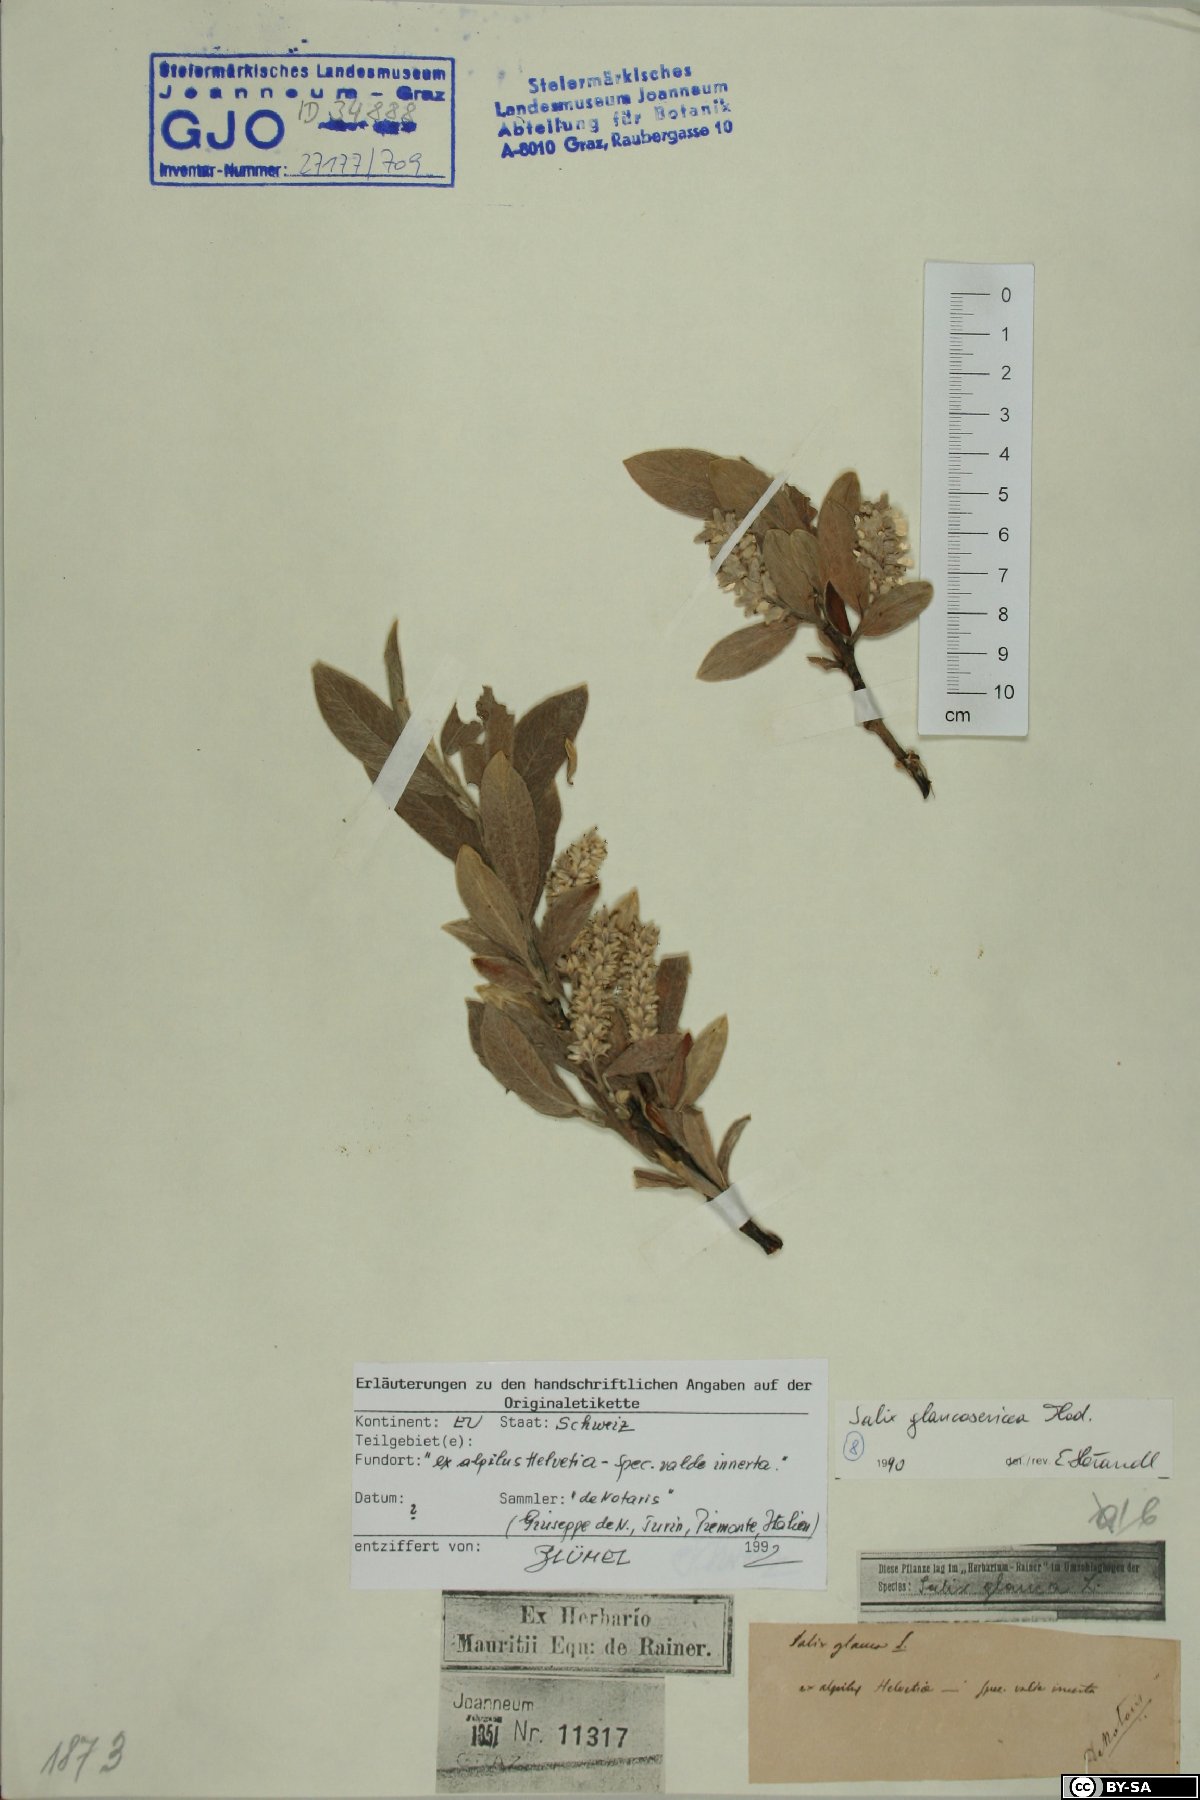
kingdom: Plantae
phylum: Tracheophyta
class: Magnoliopsida
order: Malpighiales
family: Salicaceae
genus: Salix
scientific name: Salix glaucosericea
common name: Alpine gray willow
